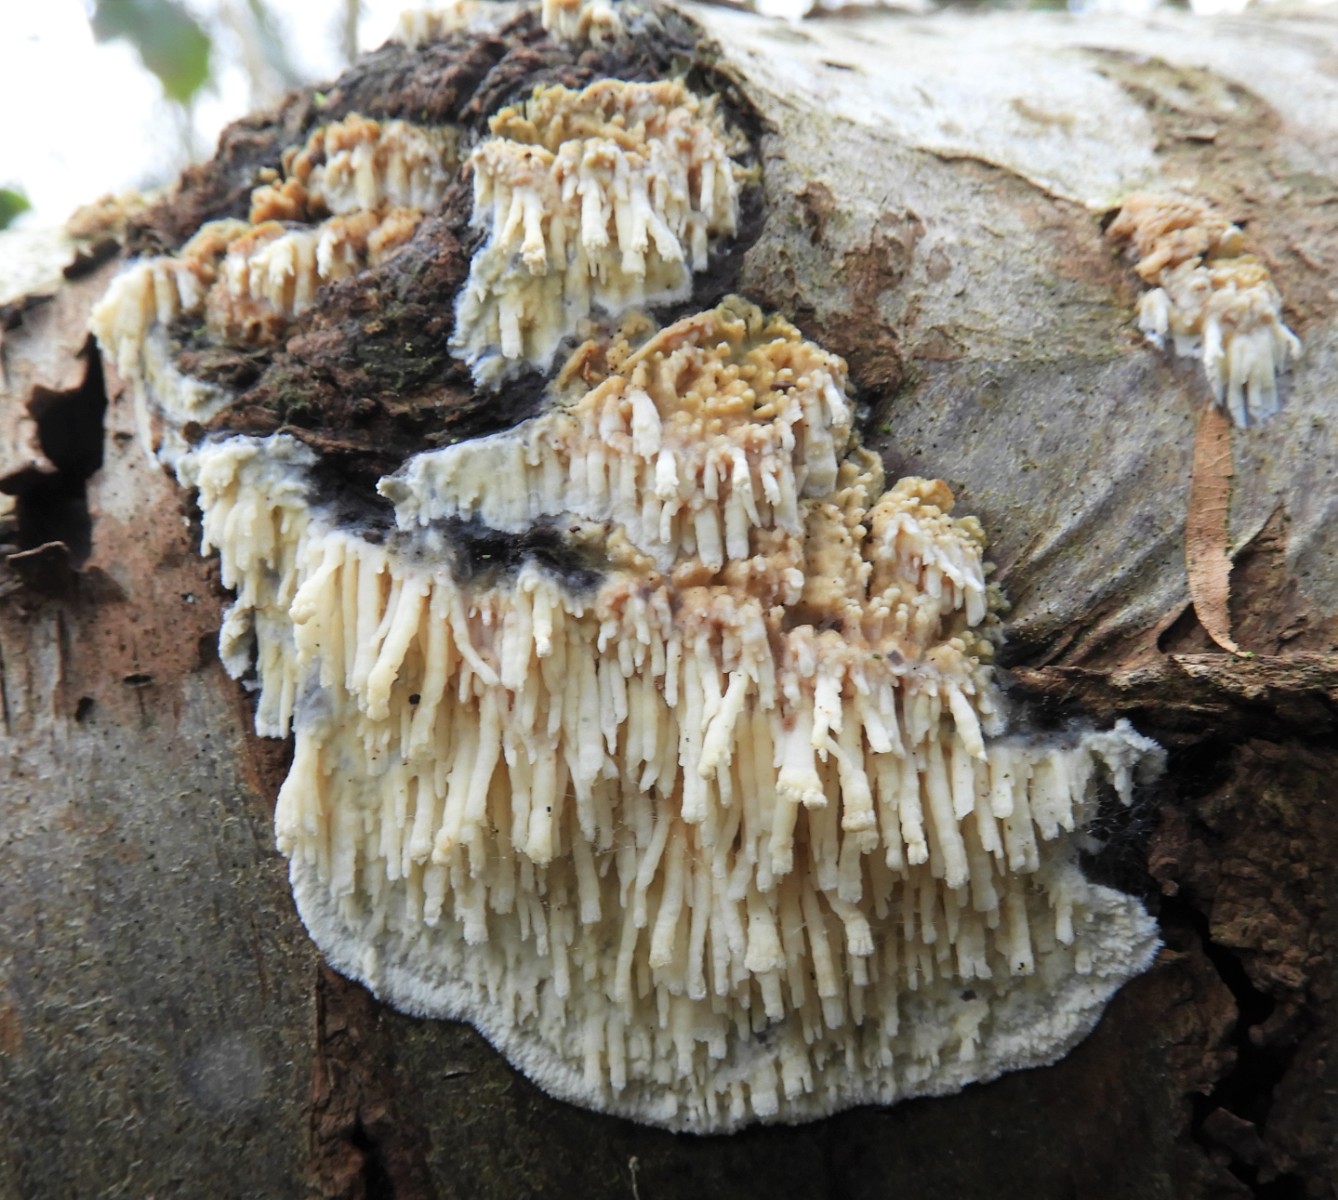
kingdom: Fungi
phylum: Basidiomycota
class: Agaricomycetes
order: Hymenochaetales
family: Schizoporaceae
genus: Xylodon
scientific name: Xylodon radula
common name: grovtandet kalkskind
